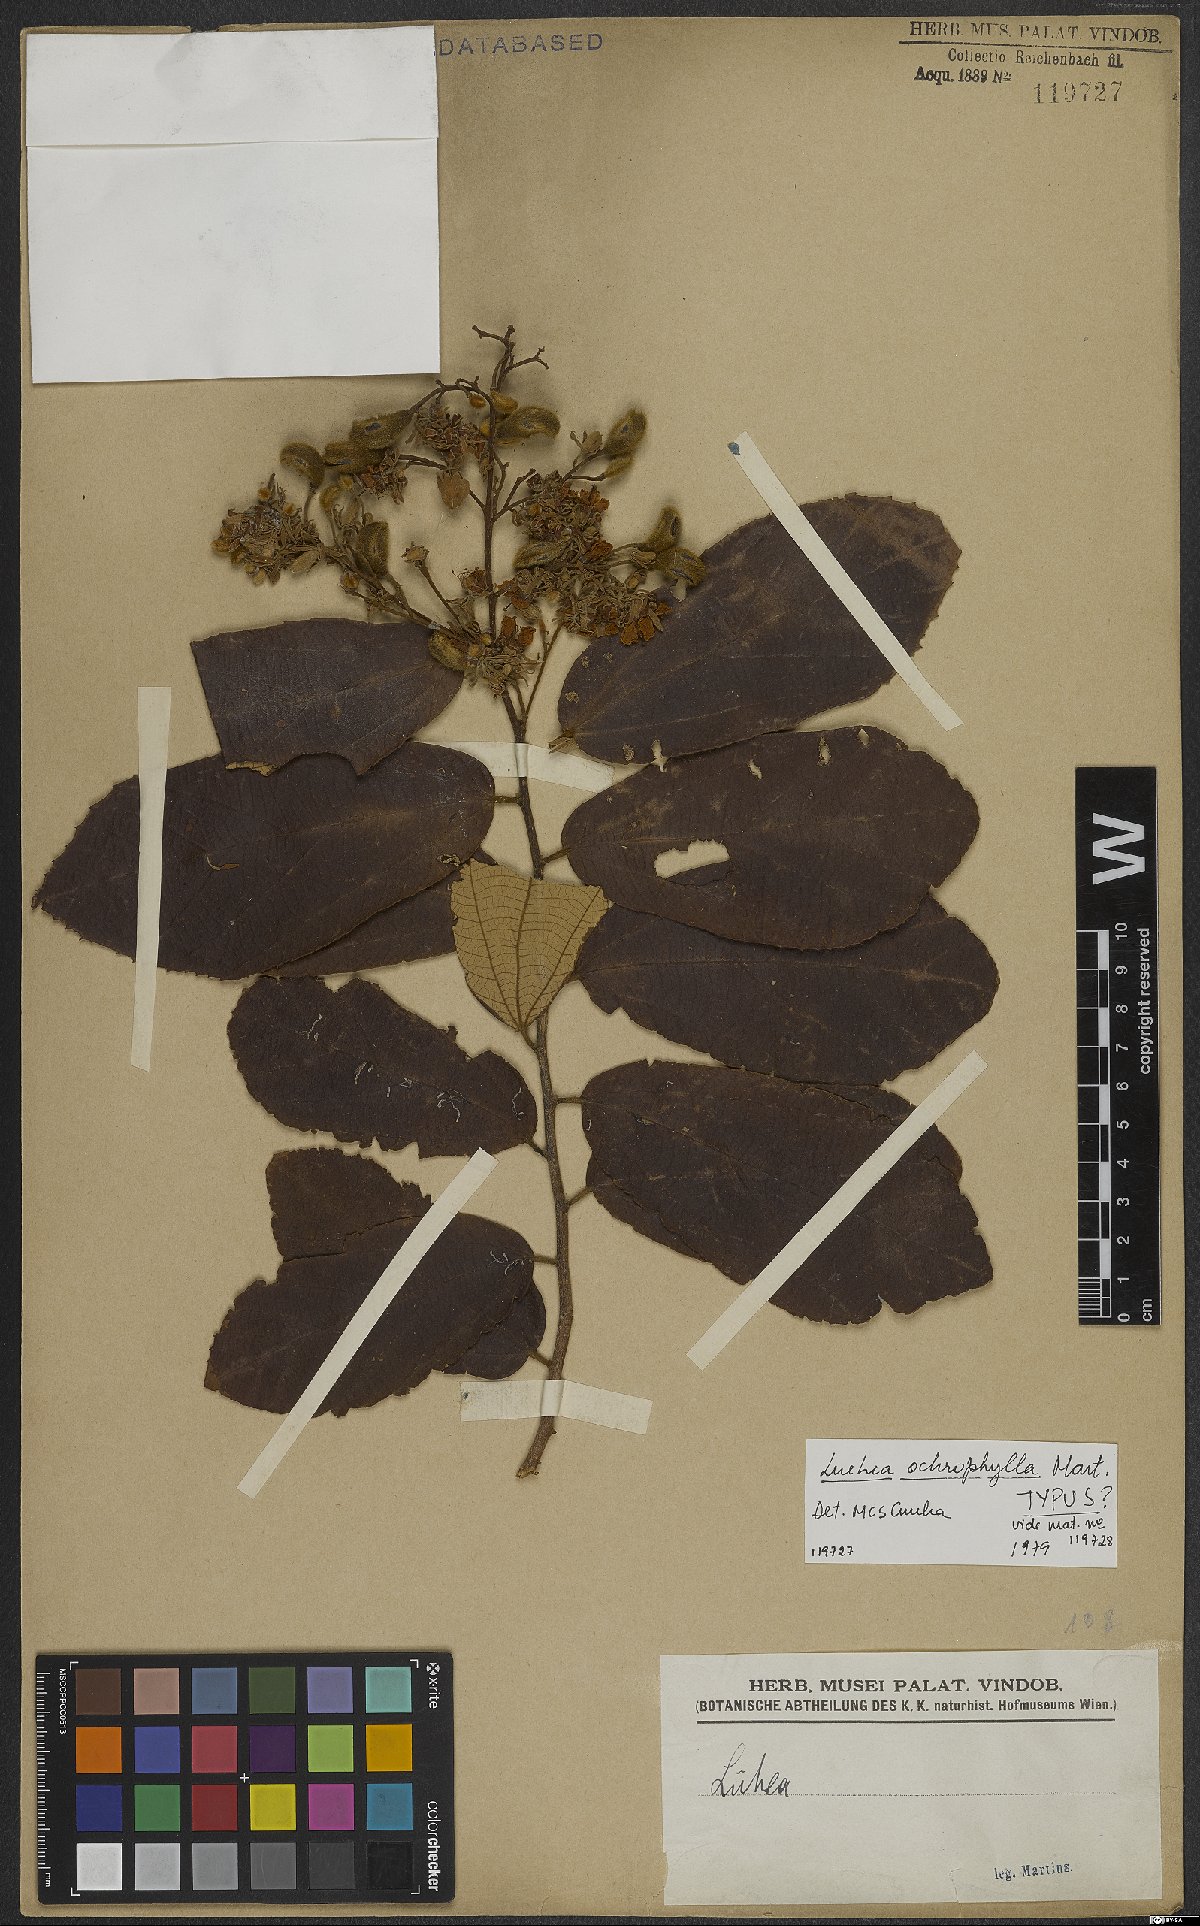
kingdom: Plantae
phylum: Tracheophyta
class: Magnoliopsida
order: Malvales
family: Malvaceae
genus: Luehea
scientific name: Luehea ochrophylla
